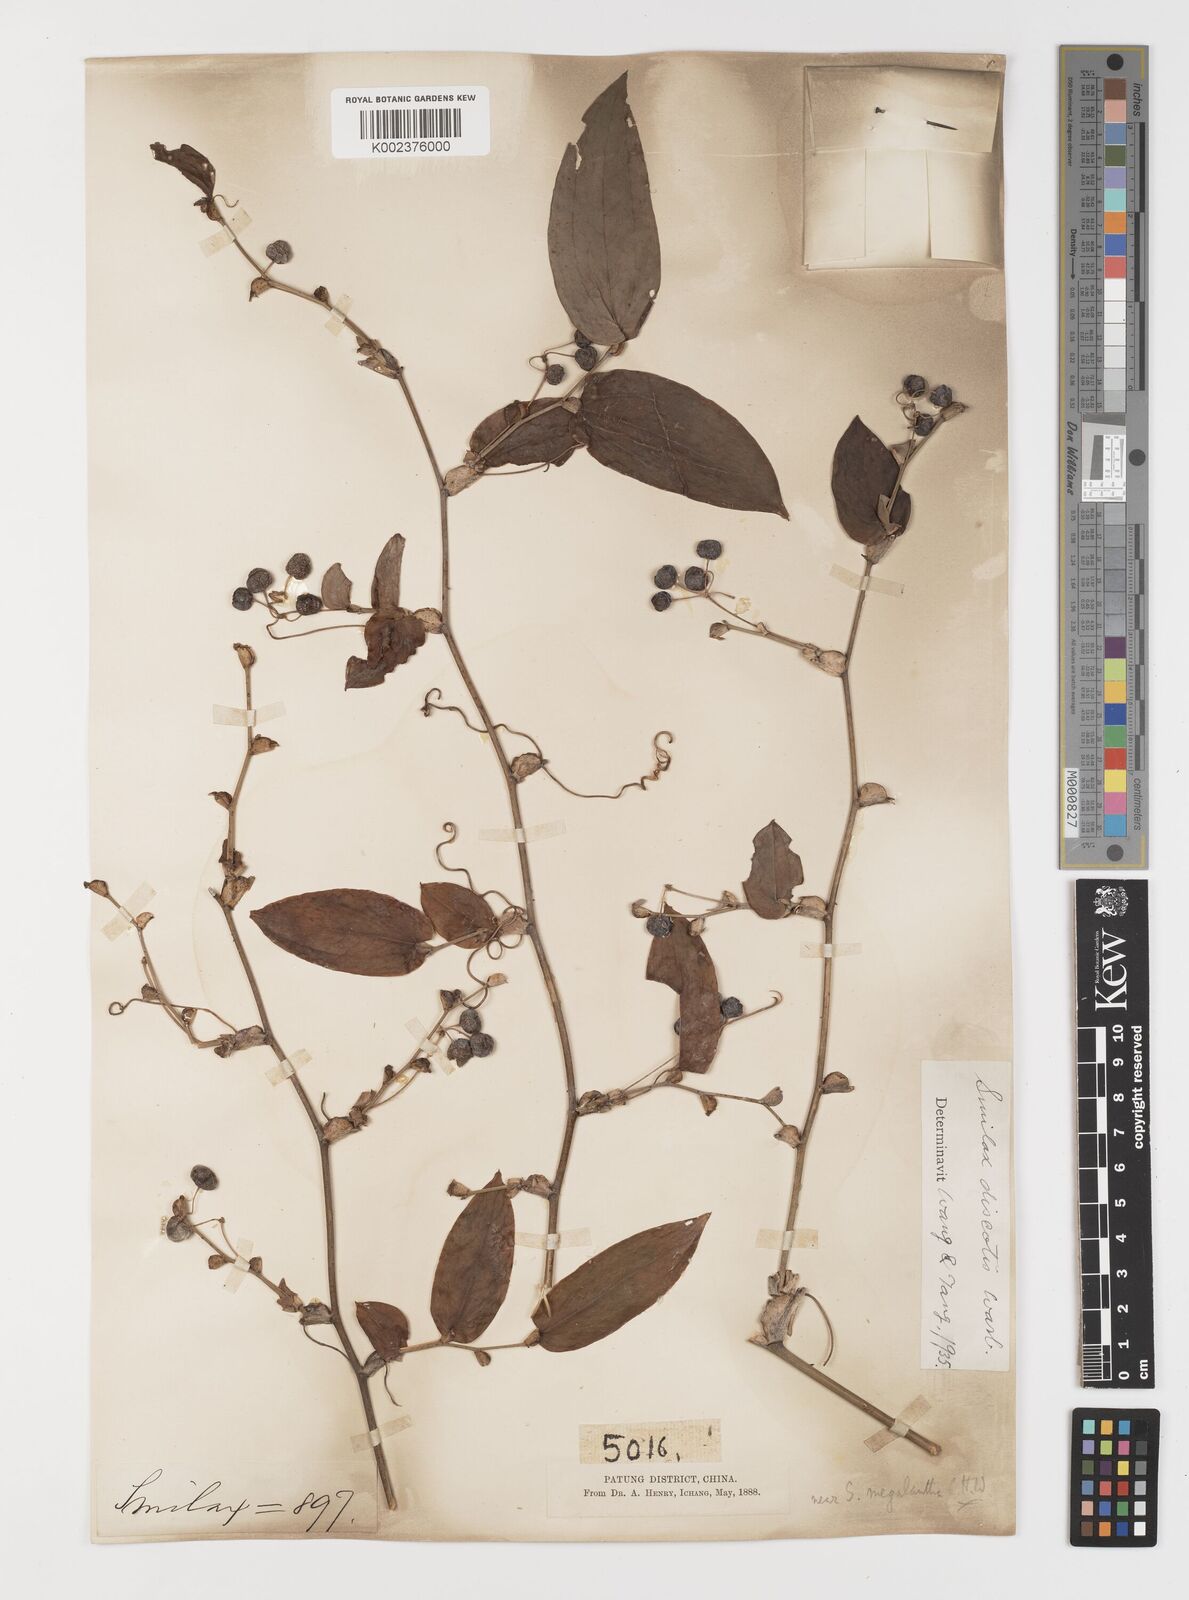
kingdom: Plantae
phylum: Tracheophyta
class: Liliopsida
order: Liliales
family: Smilacaceae
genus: Smilax
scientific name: Smilax discotis
